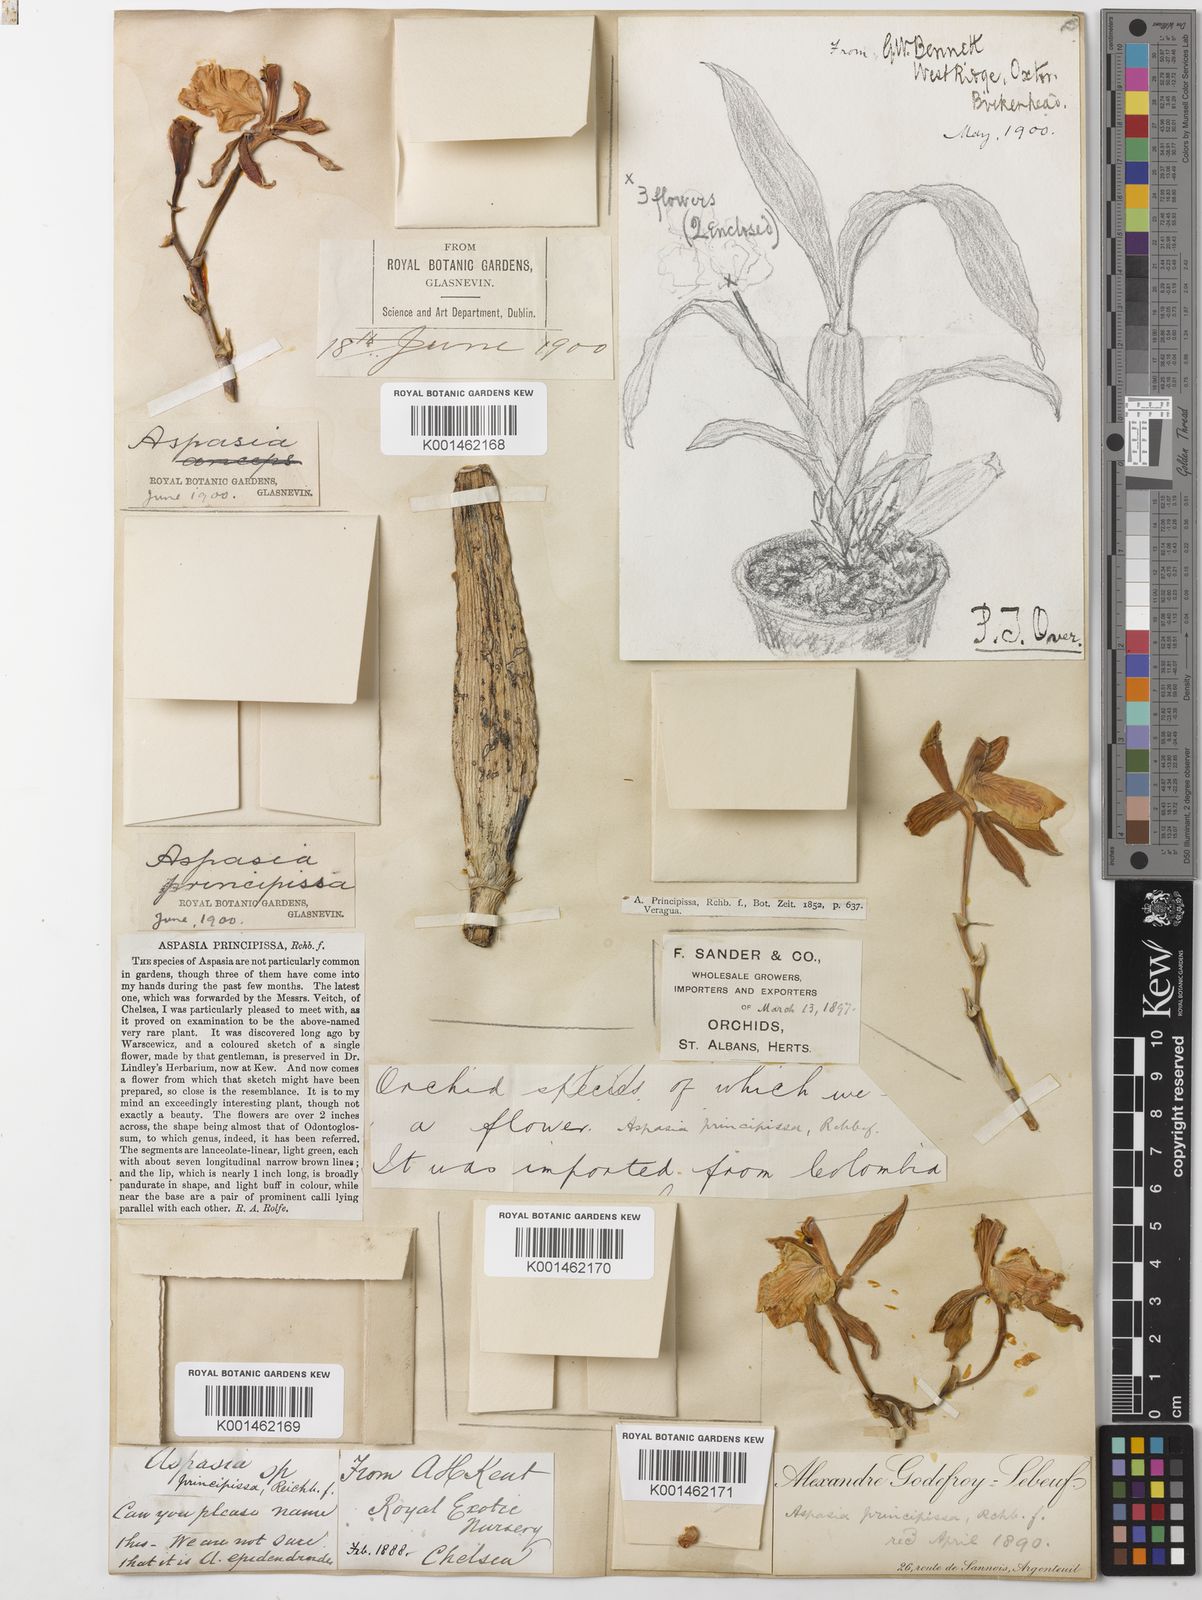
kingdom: Plantae
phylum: Tracheophyta
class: Liliopsida
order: Asparagales
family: Orchidaceae
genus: Aspasia
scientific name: Aspasia epidendroides
